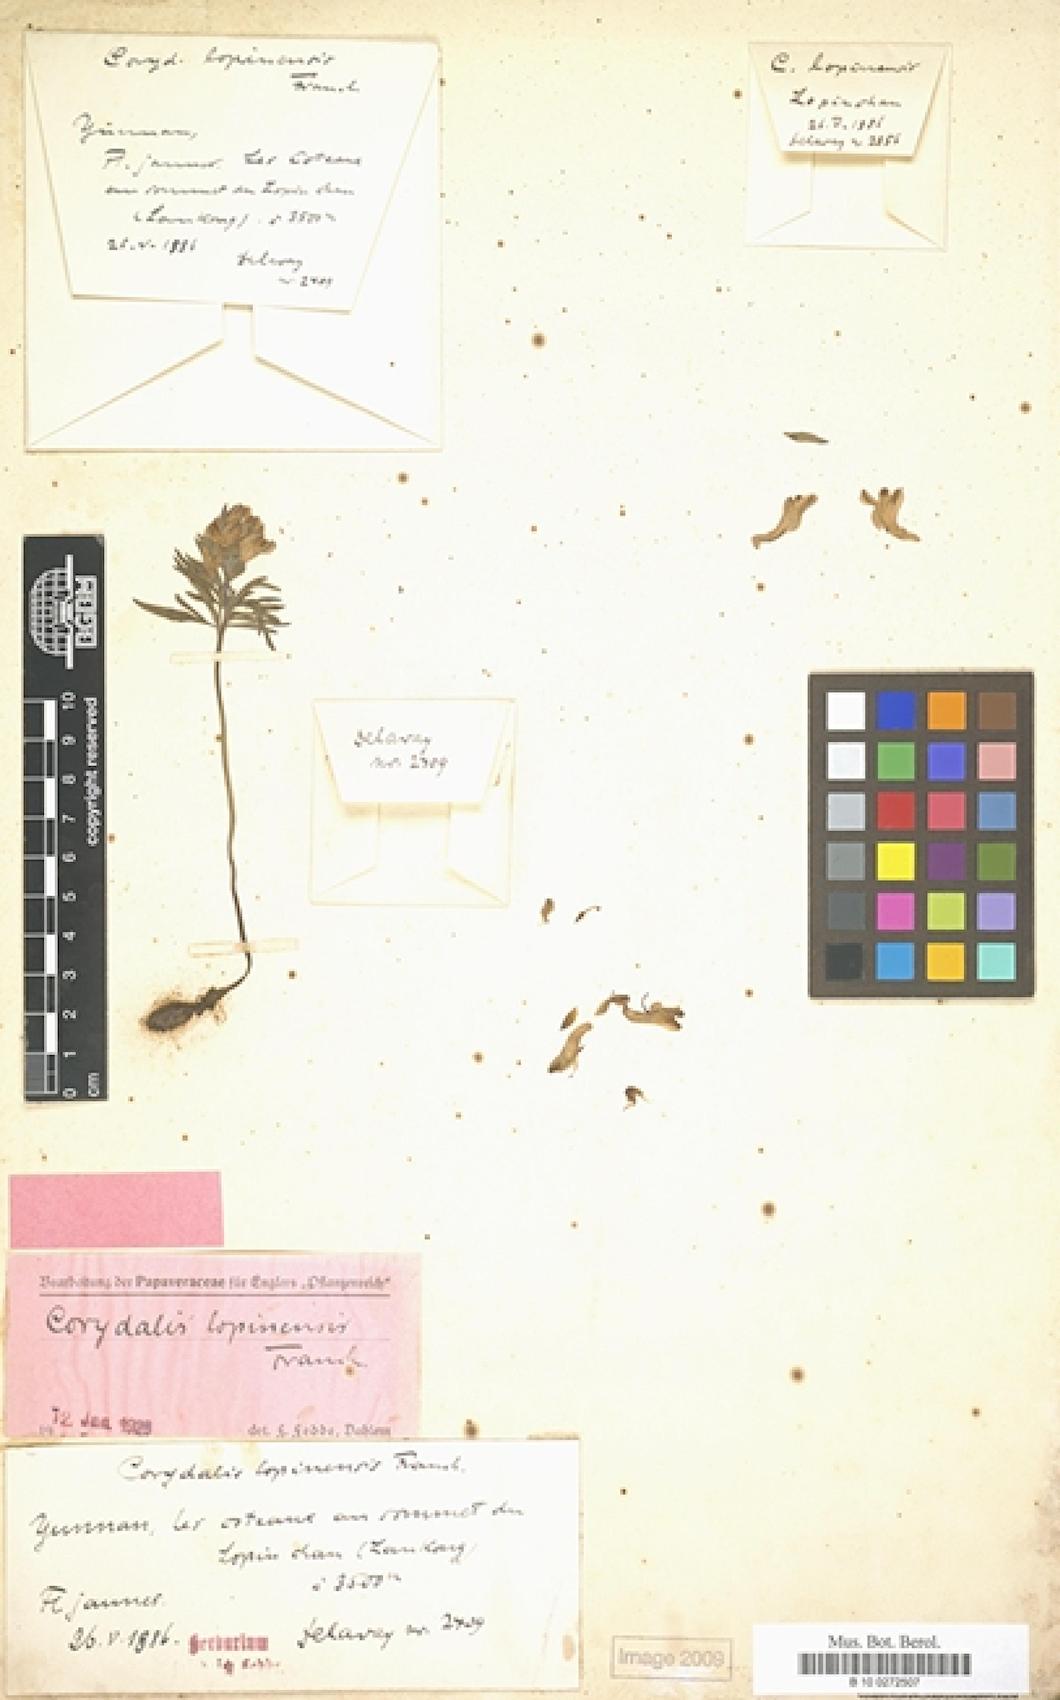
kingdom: Plantae
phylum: Tracheophyta
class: Magnoliopsida
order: Ranunculales
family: Papaveraceae
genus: Corydalis
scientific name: Corydalis lopinensis
